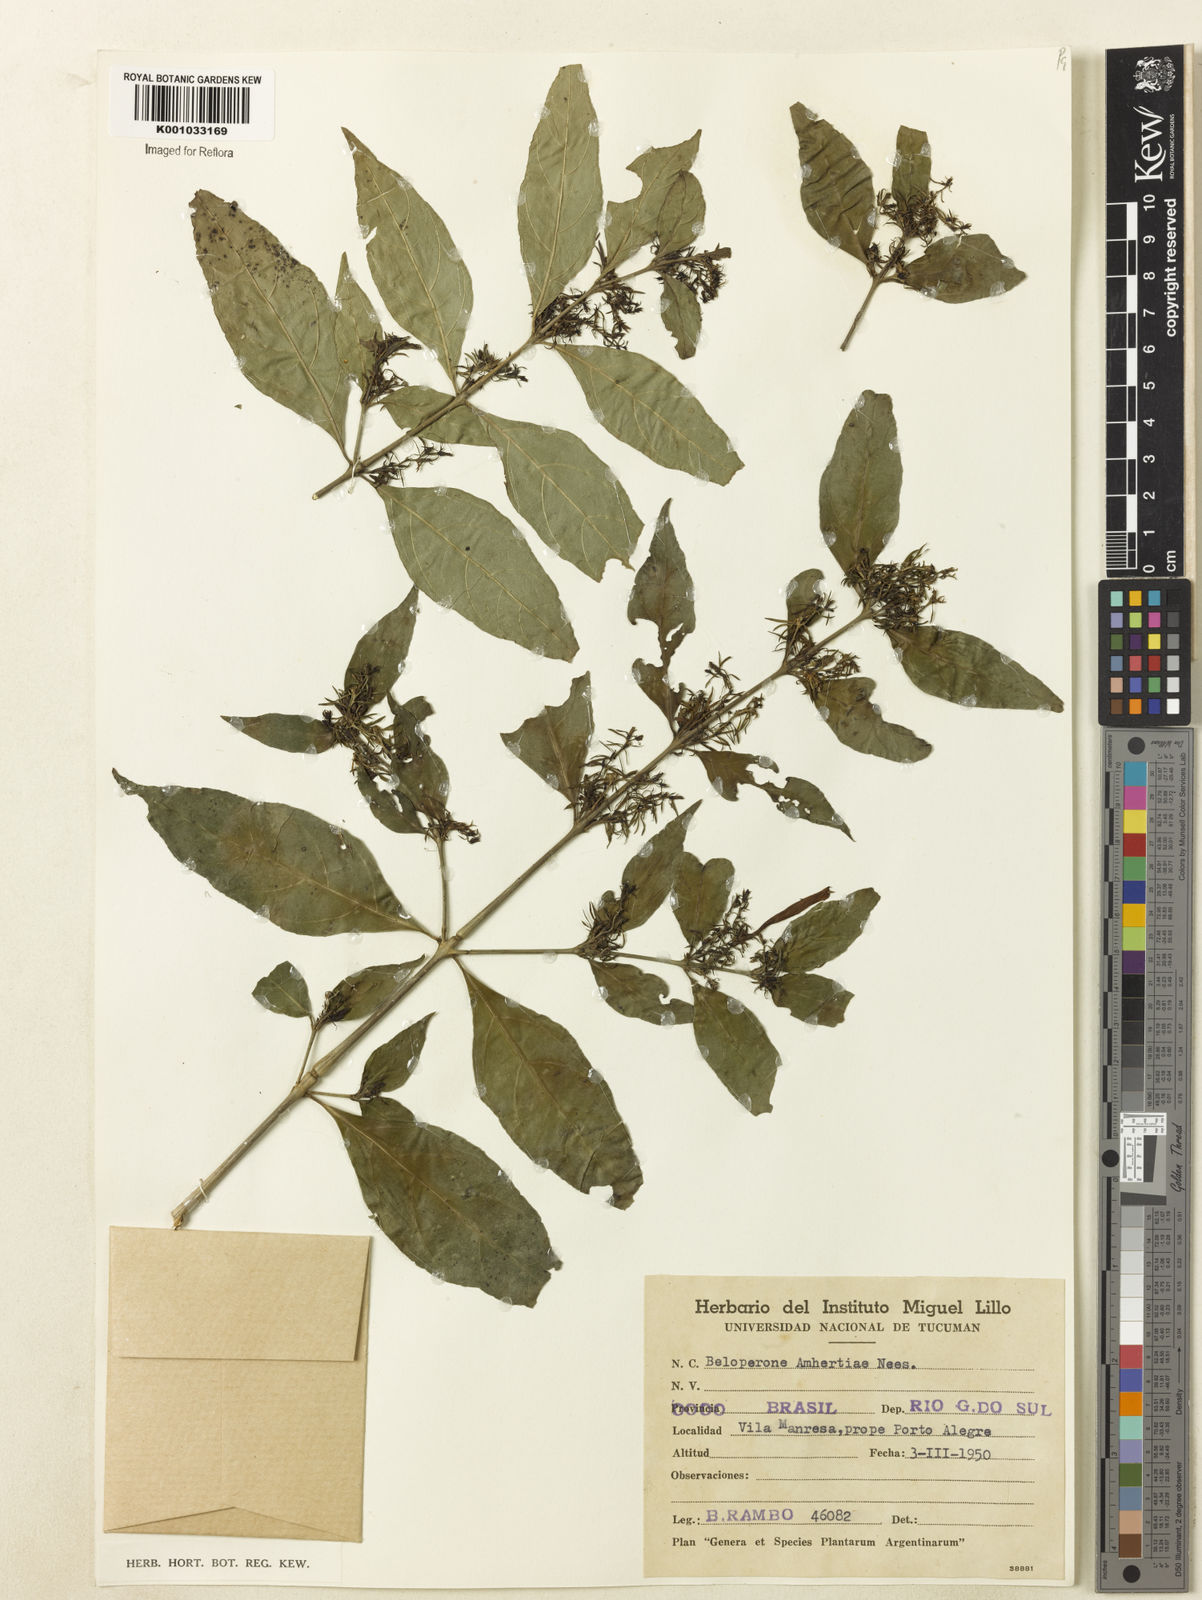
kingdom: Plantae
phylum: Tracheophyta
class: Magnoliopsida
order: Lamiales
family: Acanthaceae
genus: Justicia
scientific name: Justicia brasiliana
